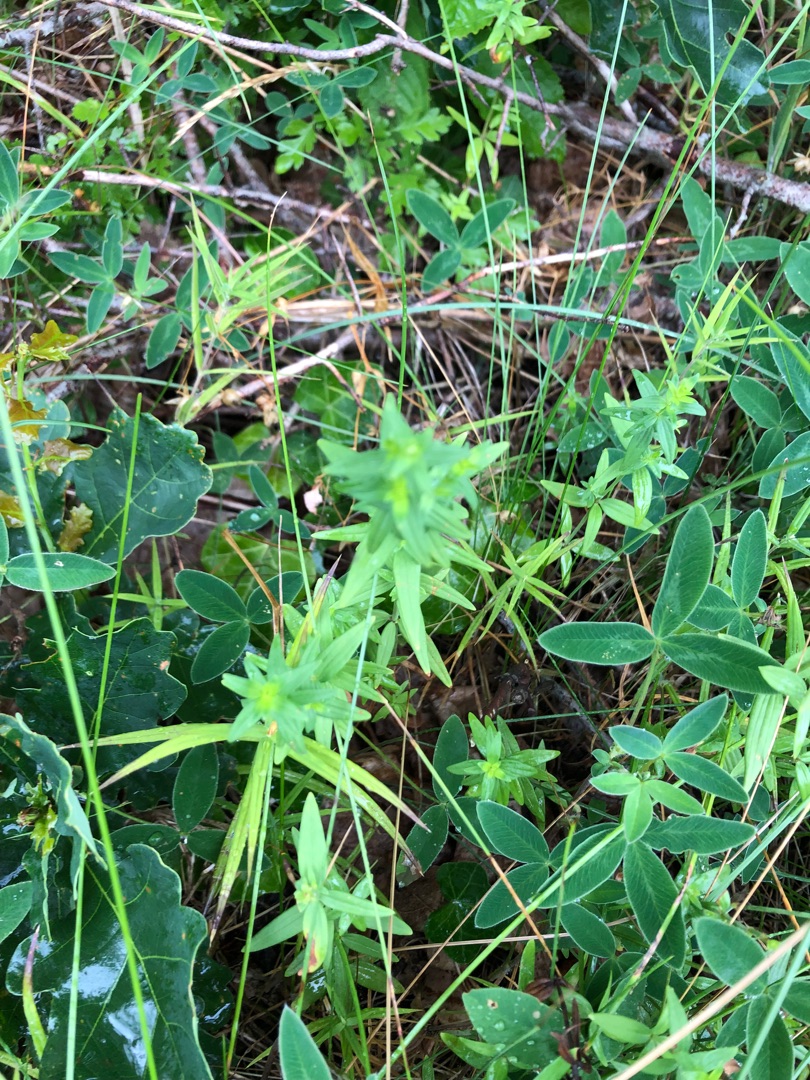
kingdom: Plantae
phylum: Tracheophyta
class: Magnoliopsida
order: Gentianales
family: Rubiaceae
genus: Galium
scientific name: Galium boreale
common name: Trenervet snerre
